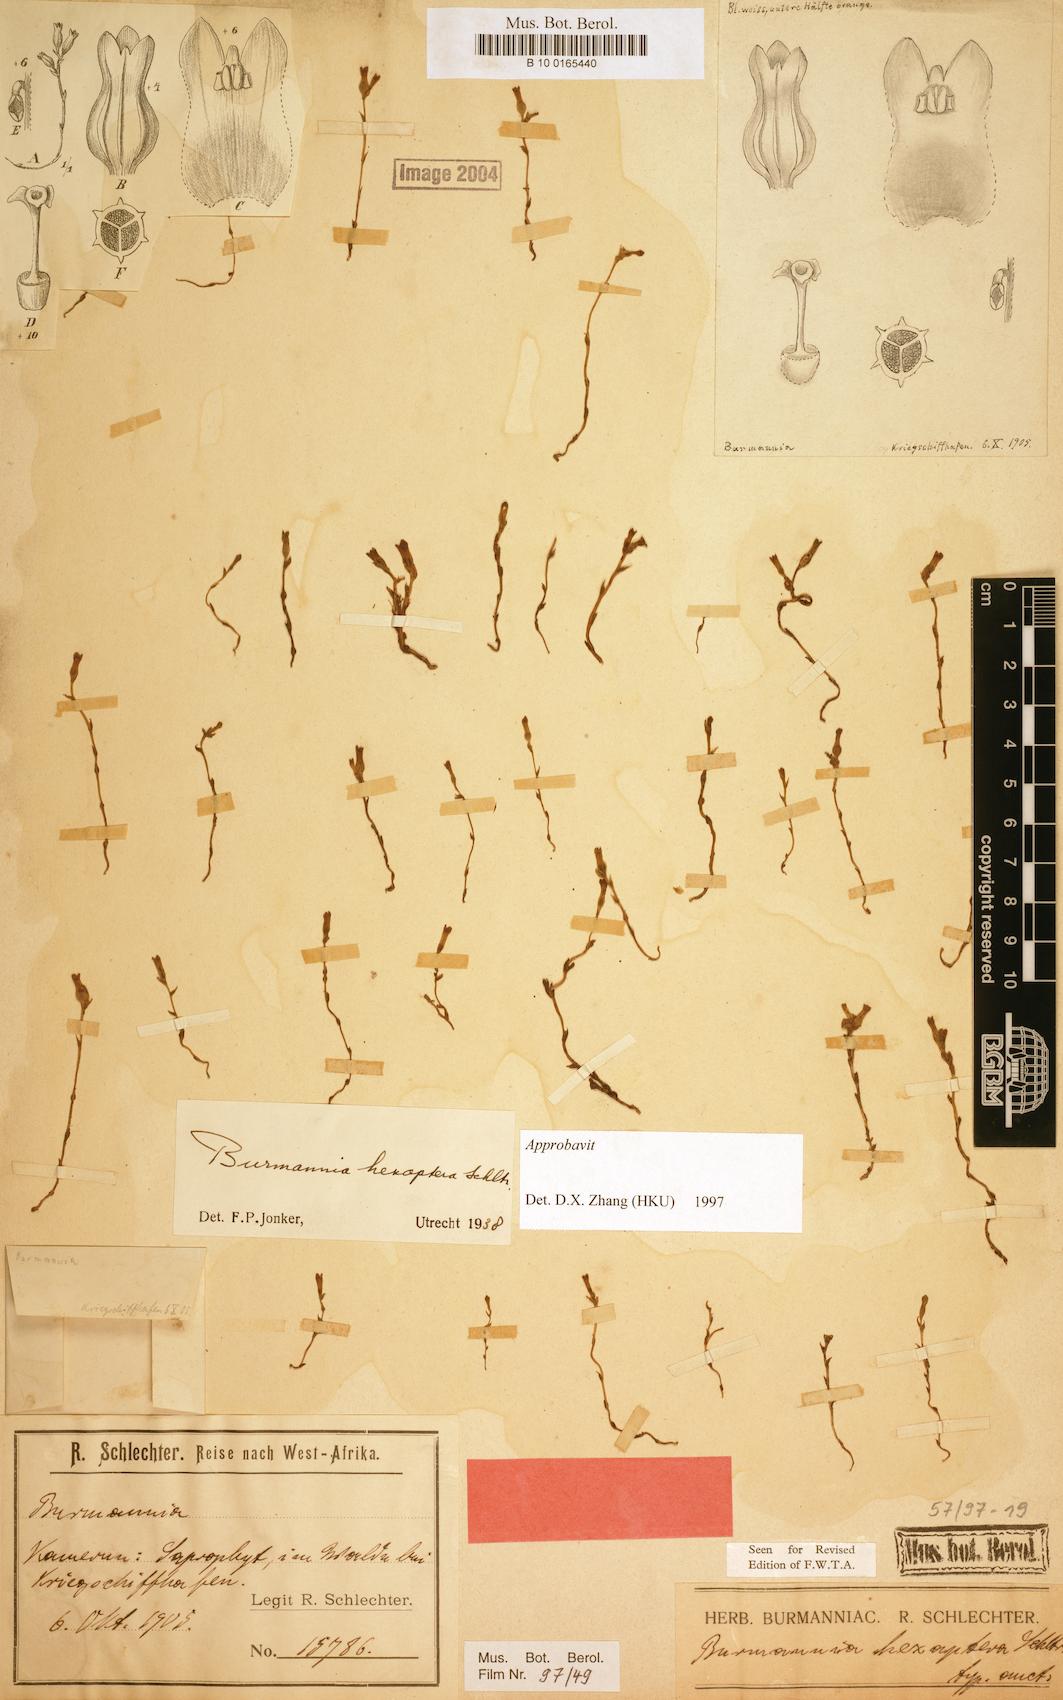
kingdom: Plantae
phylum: Tracheophyta
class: Liliopsida
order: Dioscoreales
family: Burmanniaceae
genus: Burmannia
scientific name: Burmannia hexaptera
